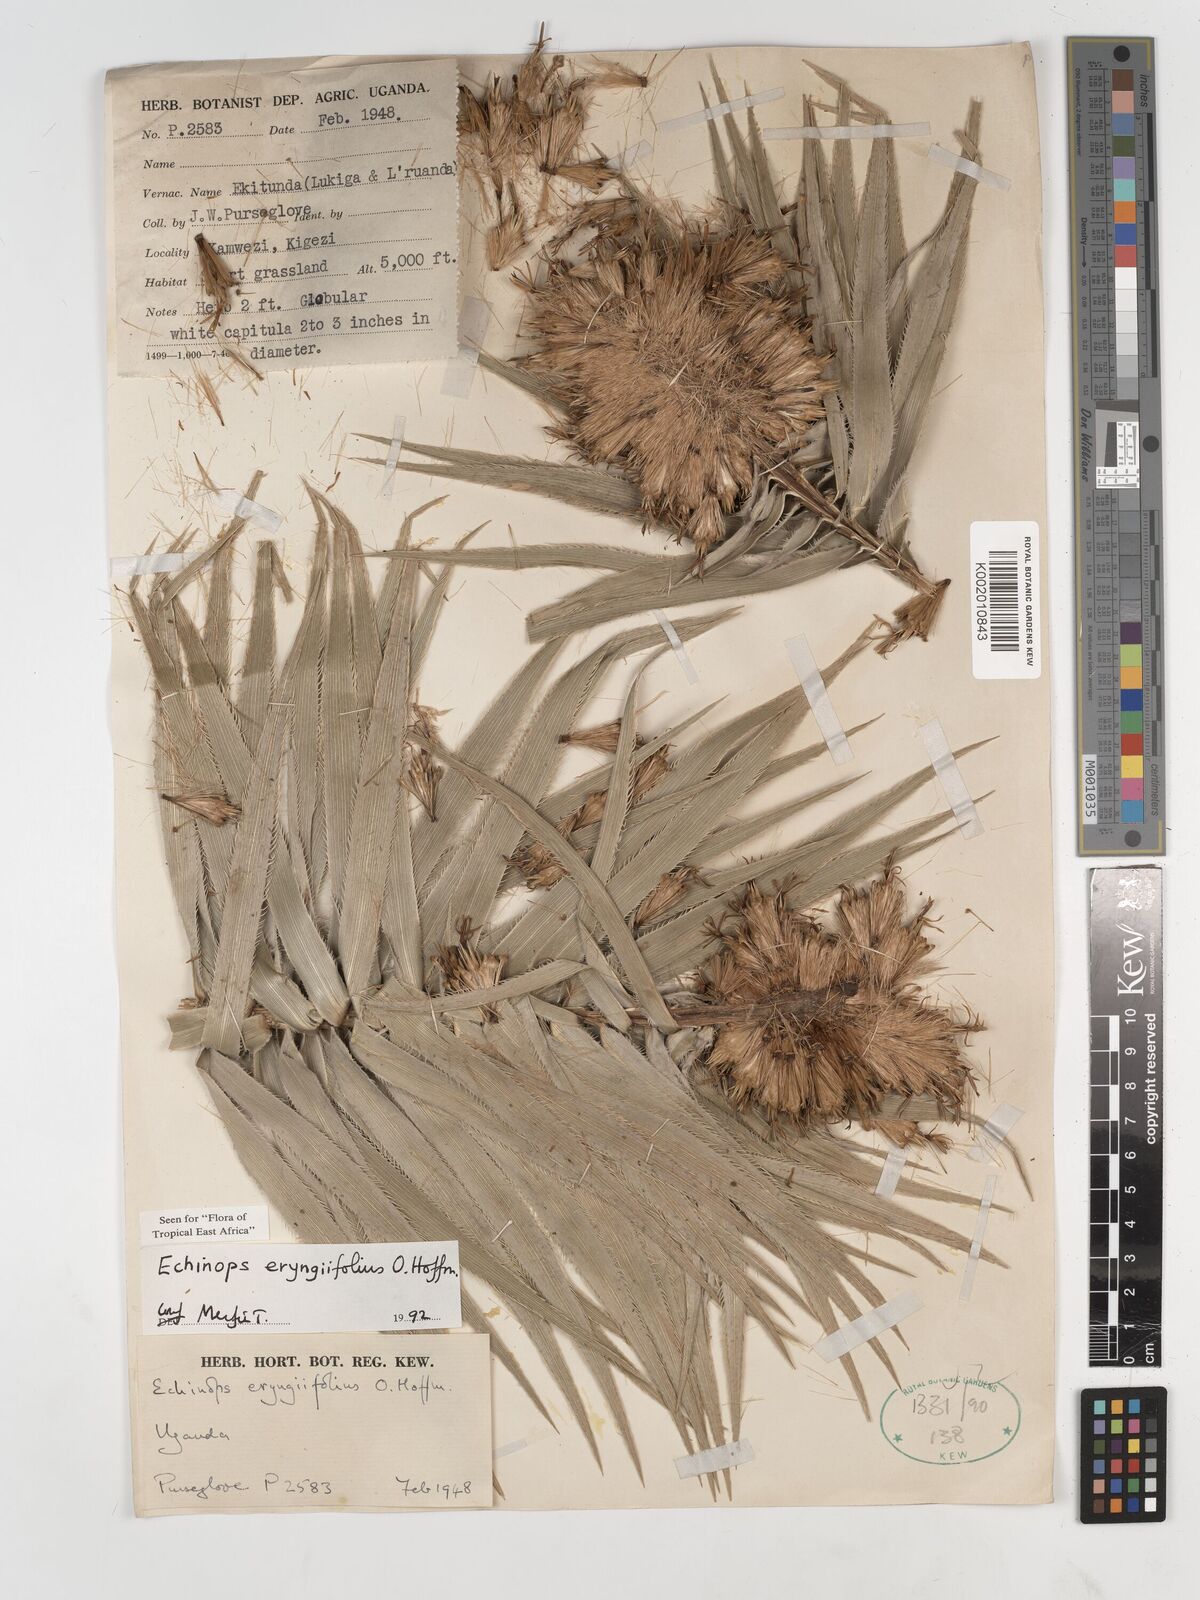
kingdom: Plantae
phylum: Tracheophyta
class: Magnoliopsida
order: Asterales
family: Asteraceae
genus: Echinops
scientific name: Echinops eryngiifolius
